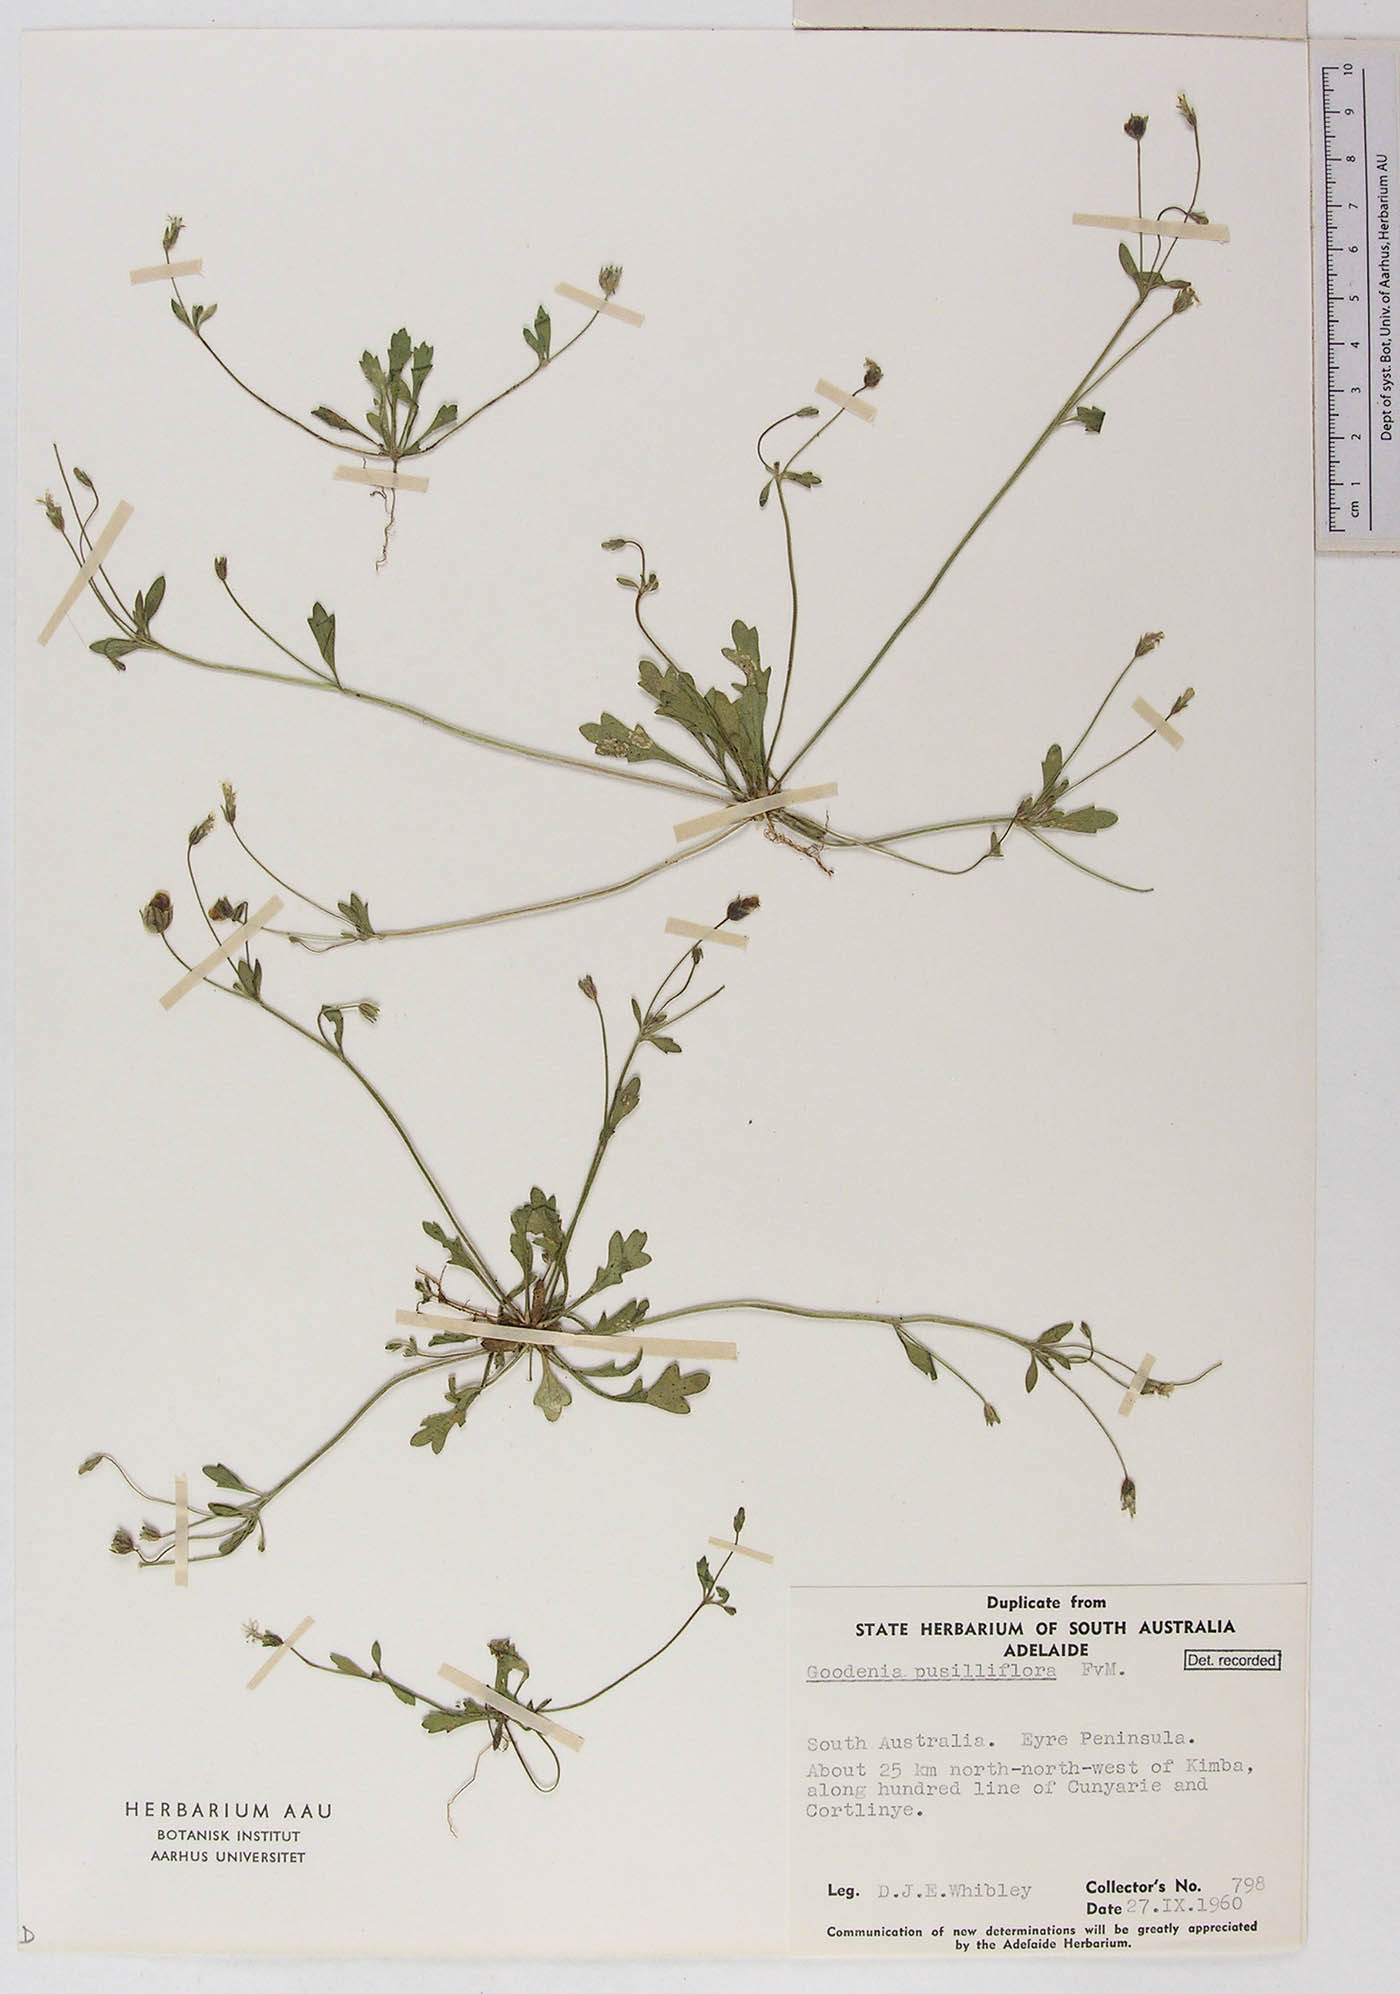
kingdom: Plantae
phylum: Tracheophyta
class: Magnoliopsida
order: Asterales
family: Goodeniaceae
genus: Goodenia
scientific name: Goodenia pusilliflora
